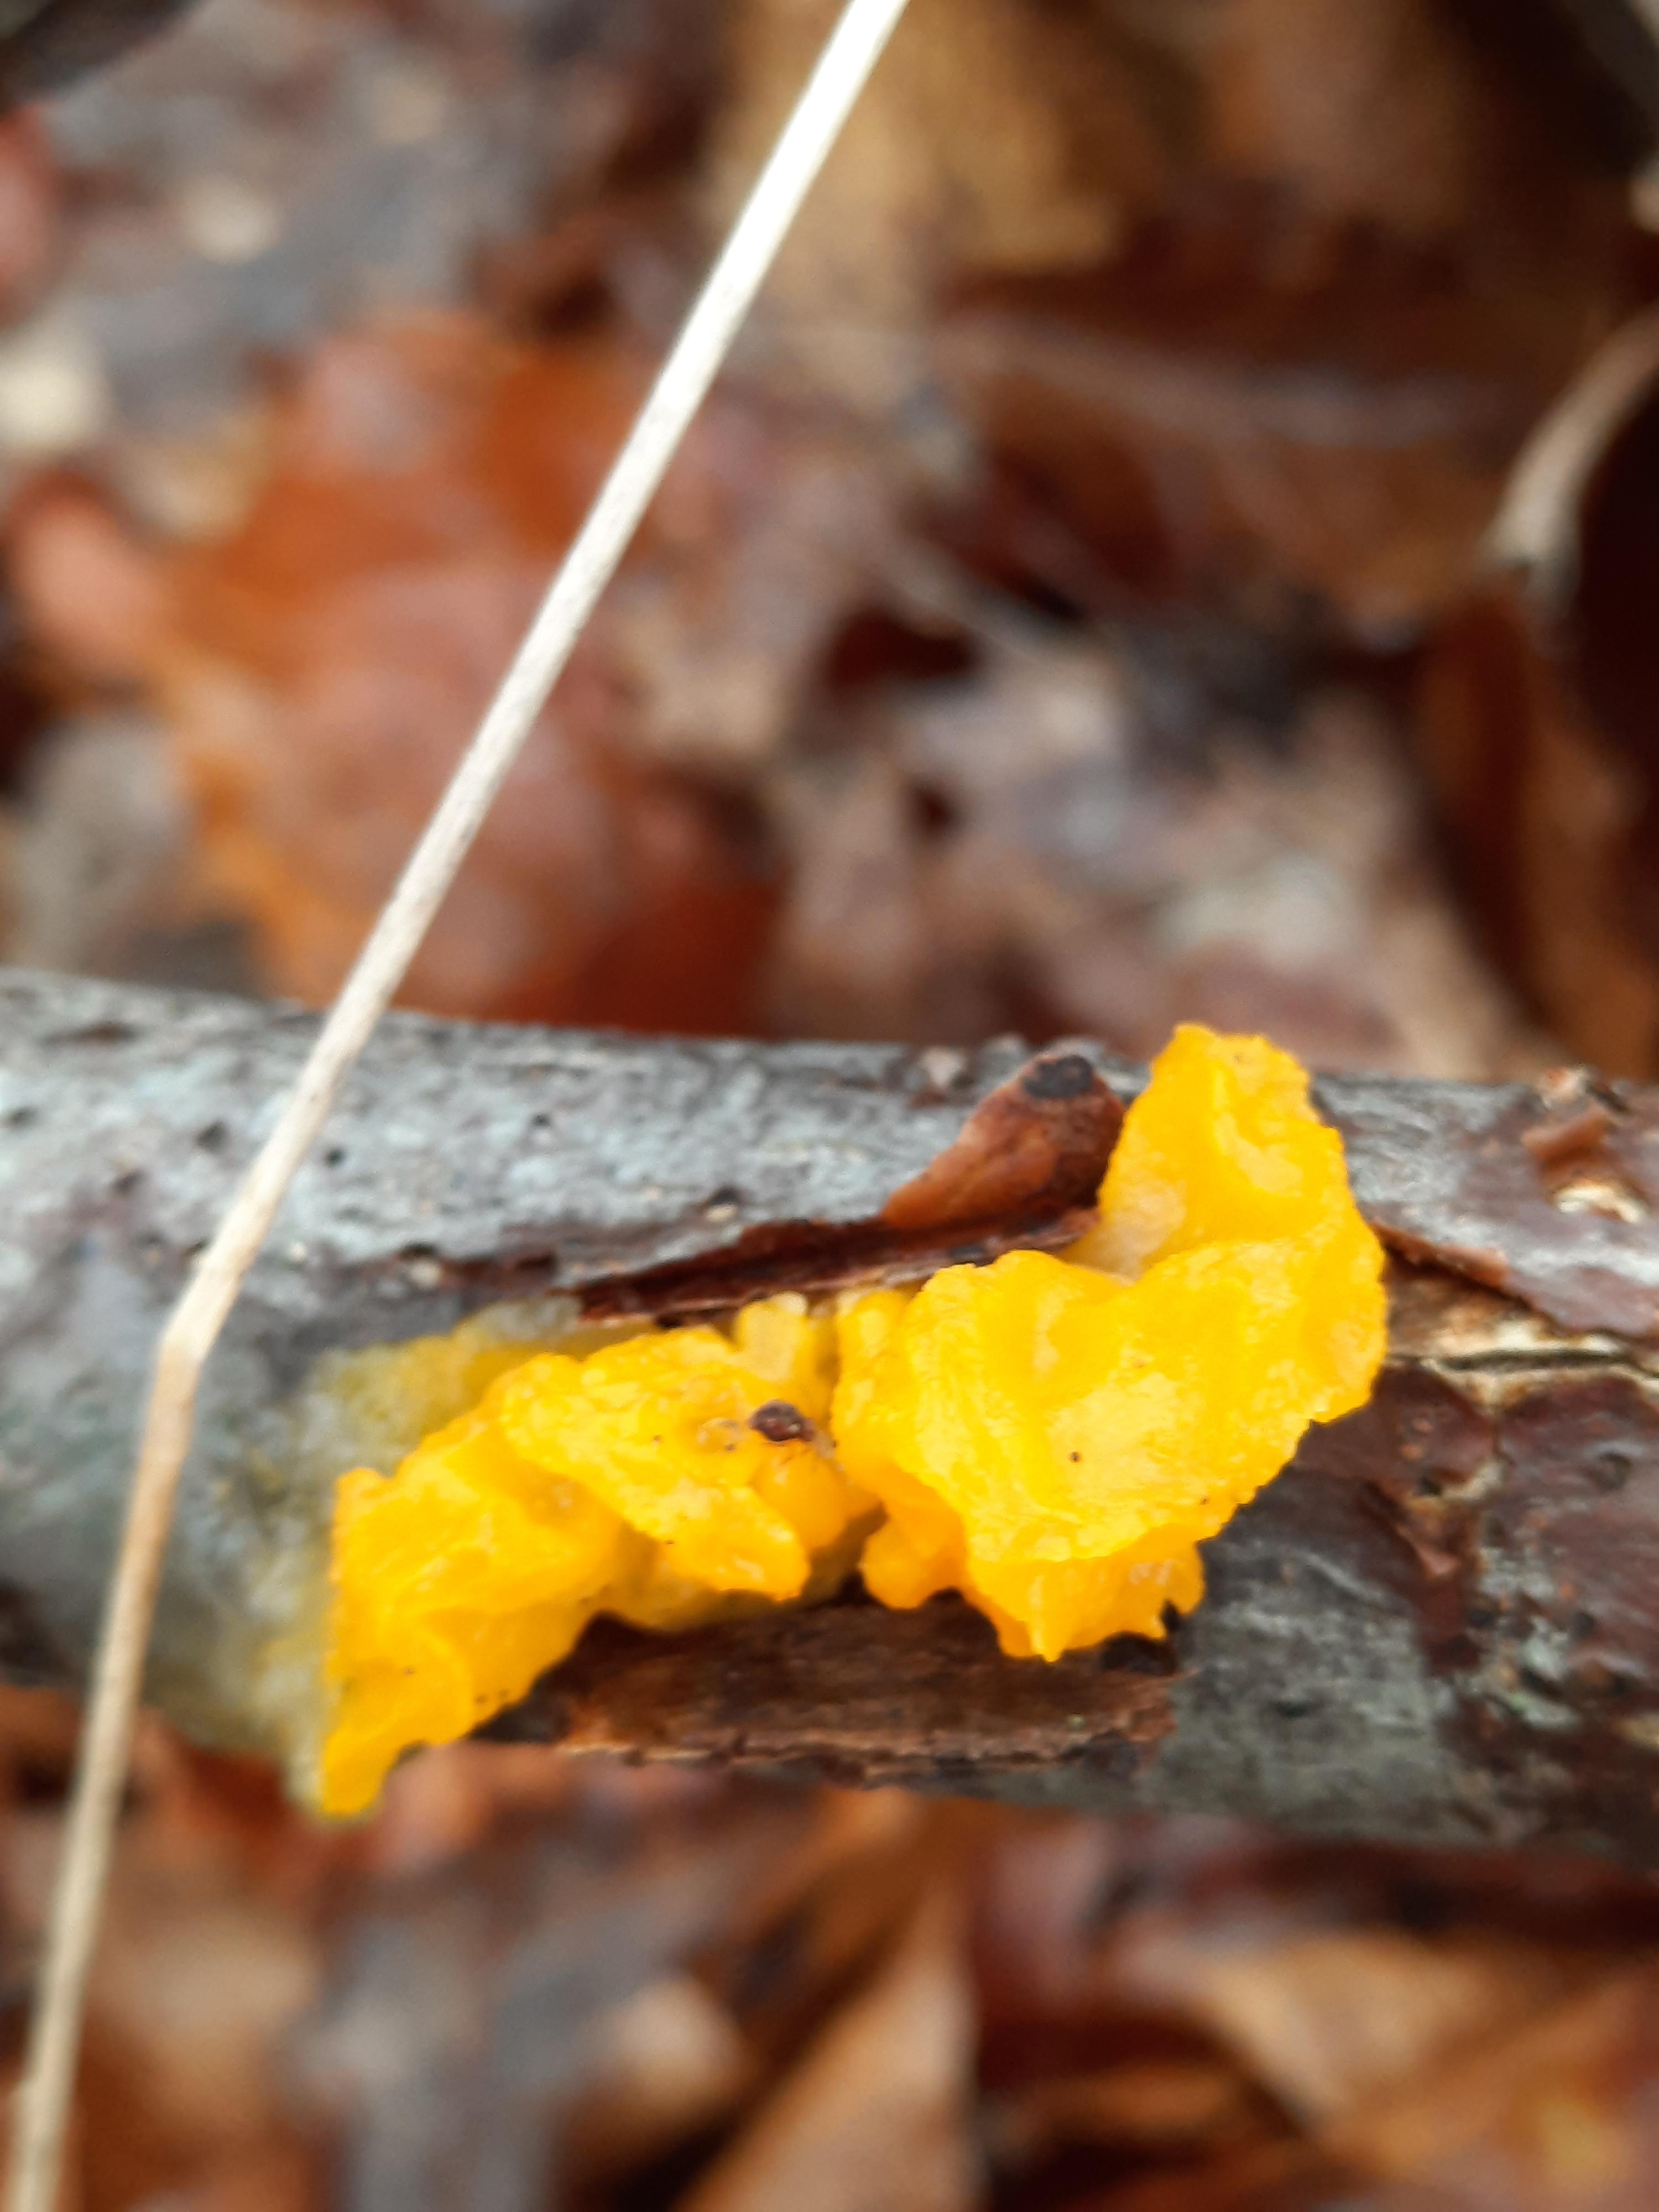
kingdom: Fungi
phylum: Basidiomycota
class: Tremellomycetes
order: Tremellales
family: Tremellaceae
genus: Tremella
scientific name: Tremella mesenterica
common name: gul bævresvamp
